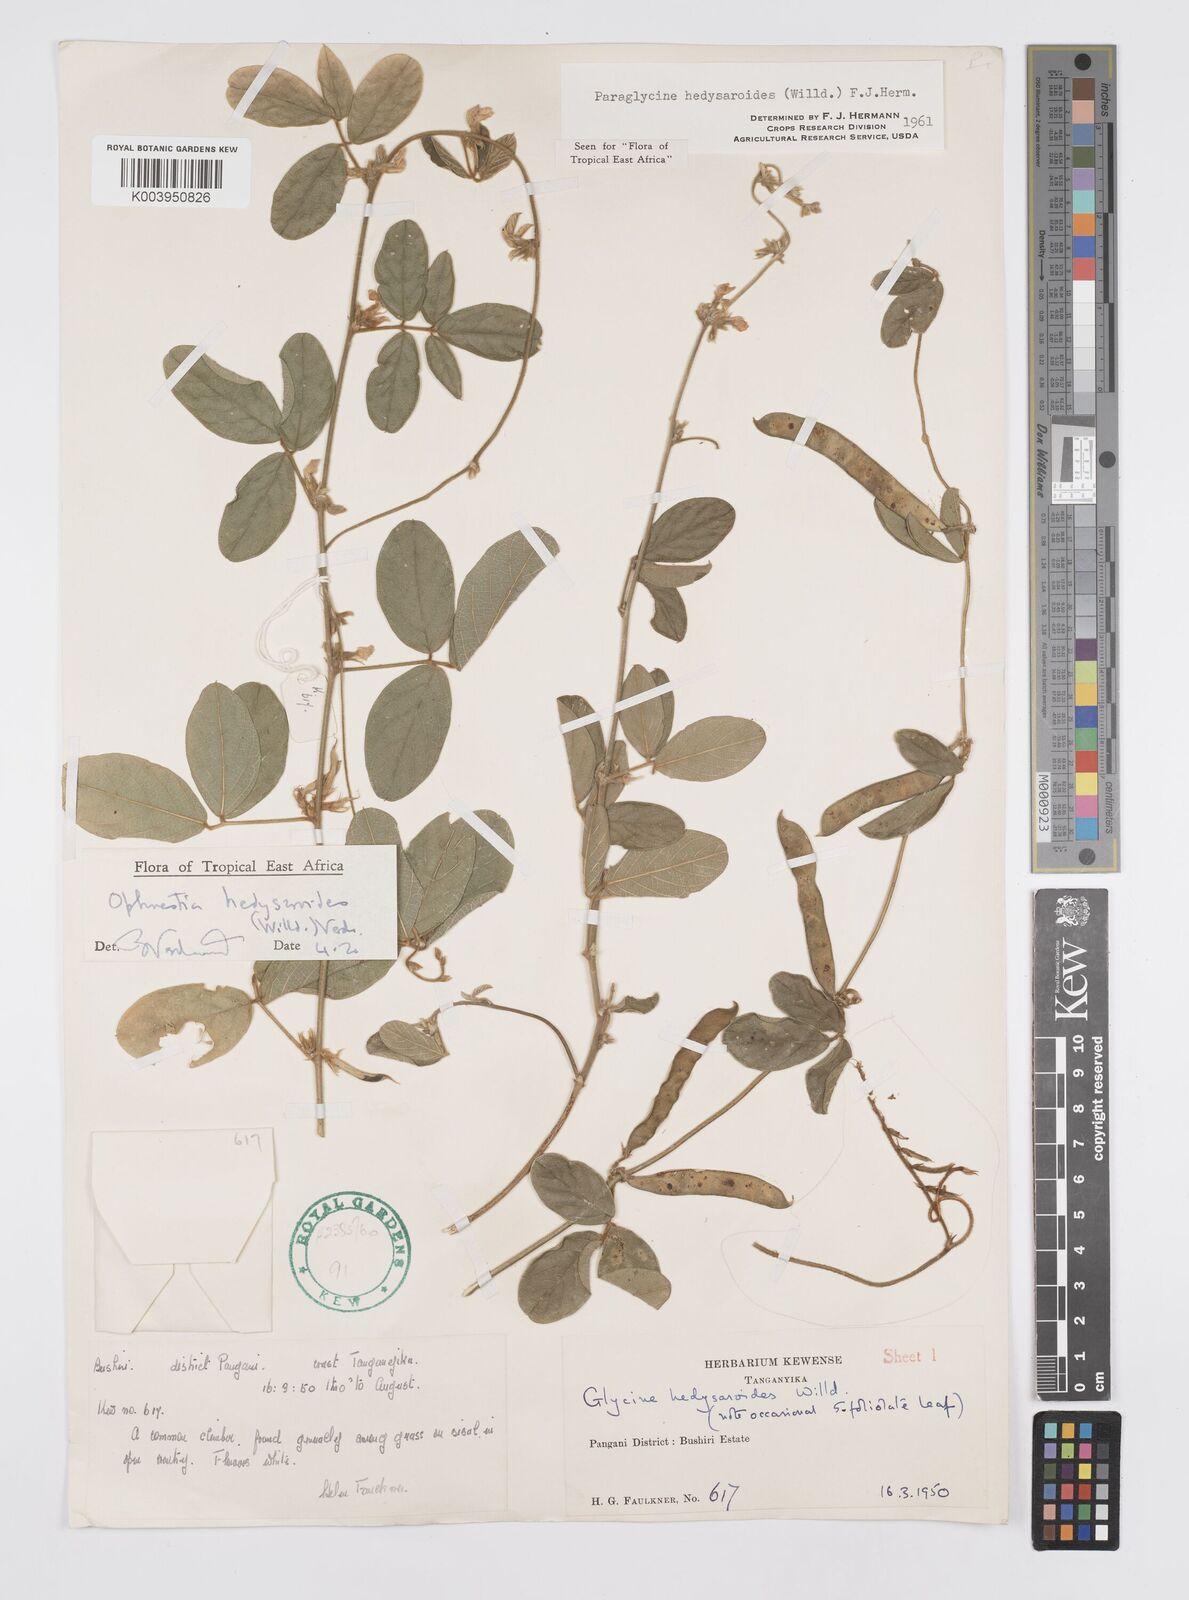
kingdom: Plantae
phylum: Tracheophyta
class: Magnoliopsida
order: Fabales
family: Fabaceae
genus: Ophrestia
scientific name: Ophrestia hedysaroides
